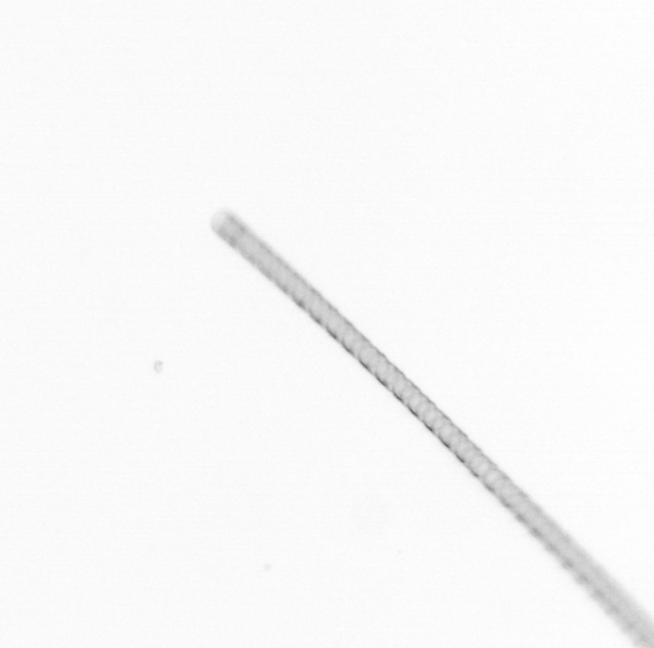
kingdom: Chromista
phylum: Ochrophyta
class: Bacillariophyceae
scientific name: Bacillariophyceae
